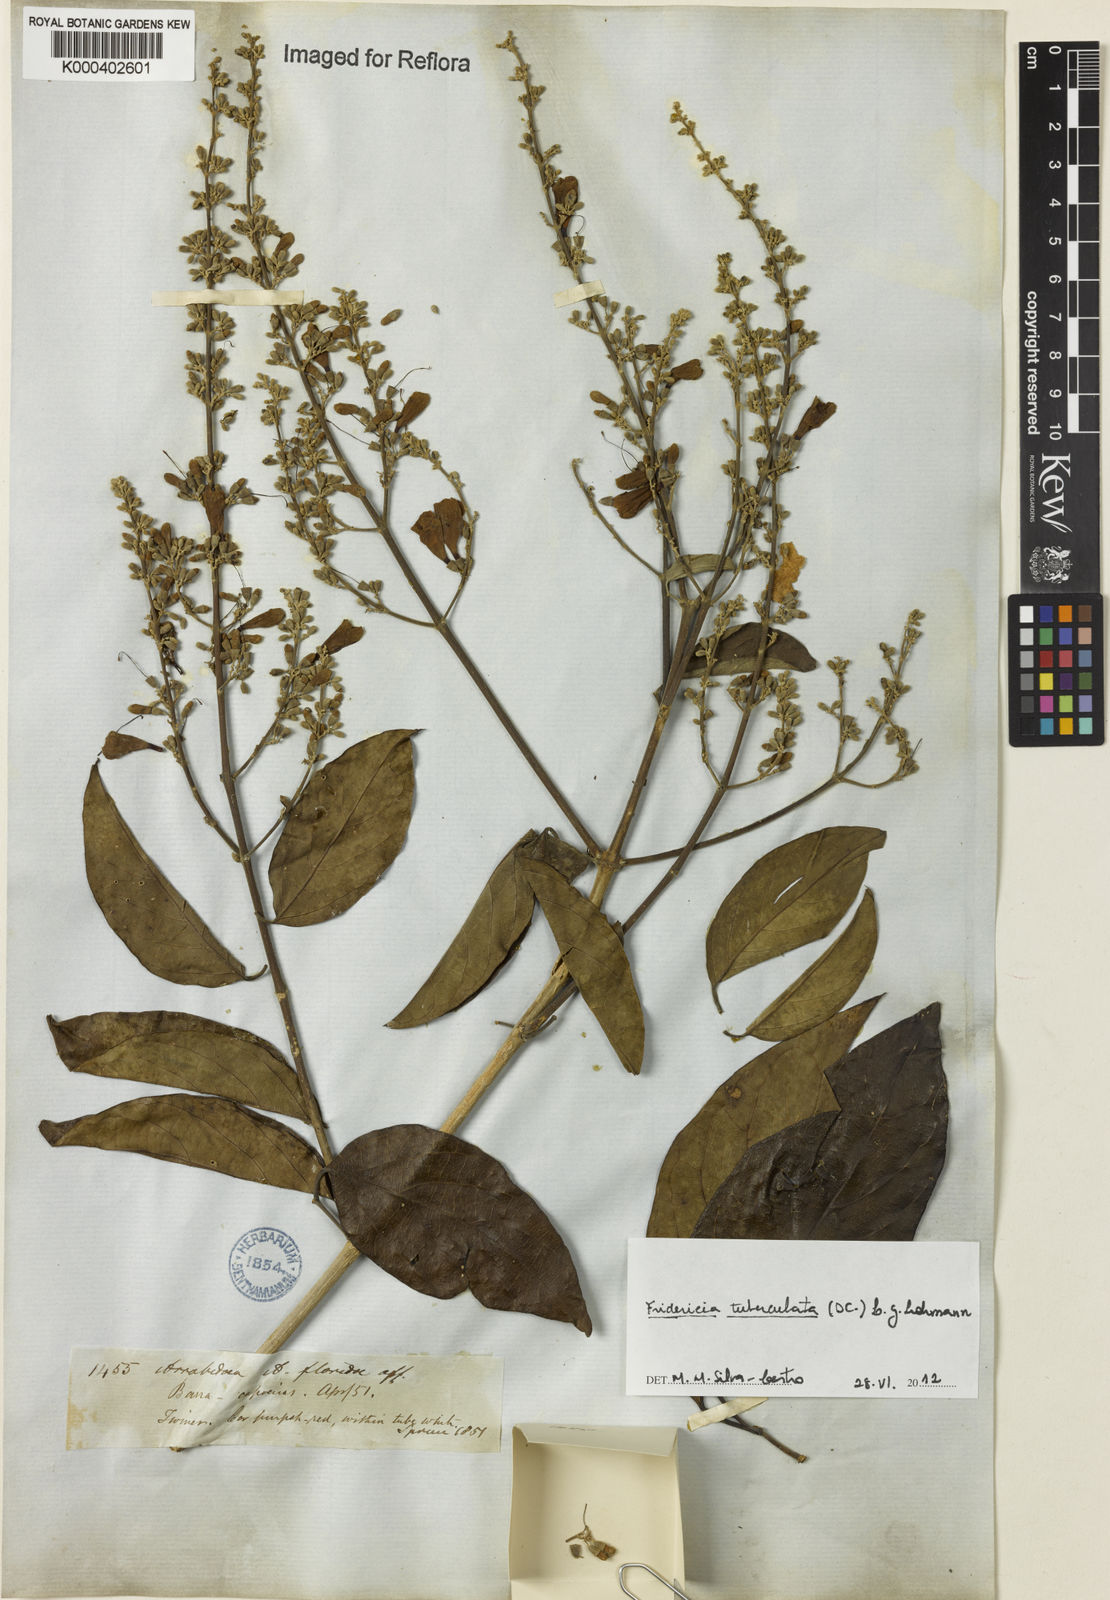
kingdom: Plantae
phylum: Tracheophyta
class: Magnoliopsida
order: Lamiales
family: Bignoniaceae
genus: Fridericia
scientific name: Fridericia tuberculata
